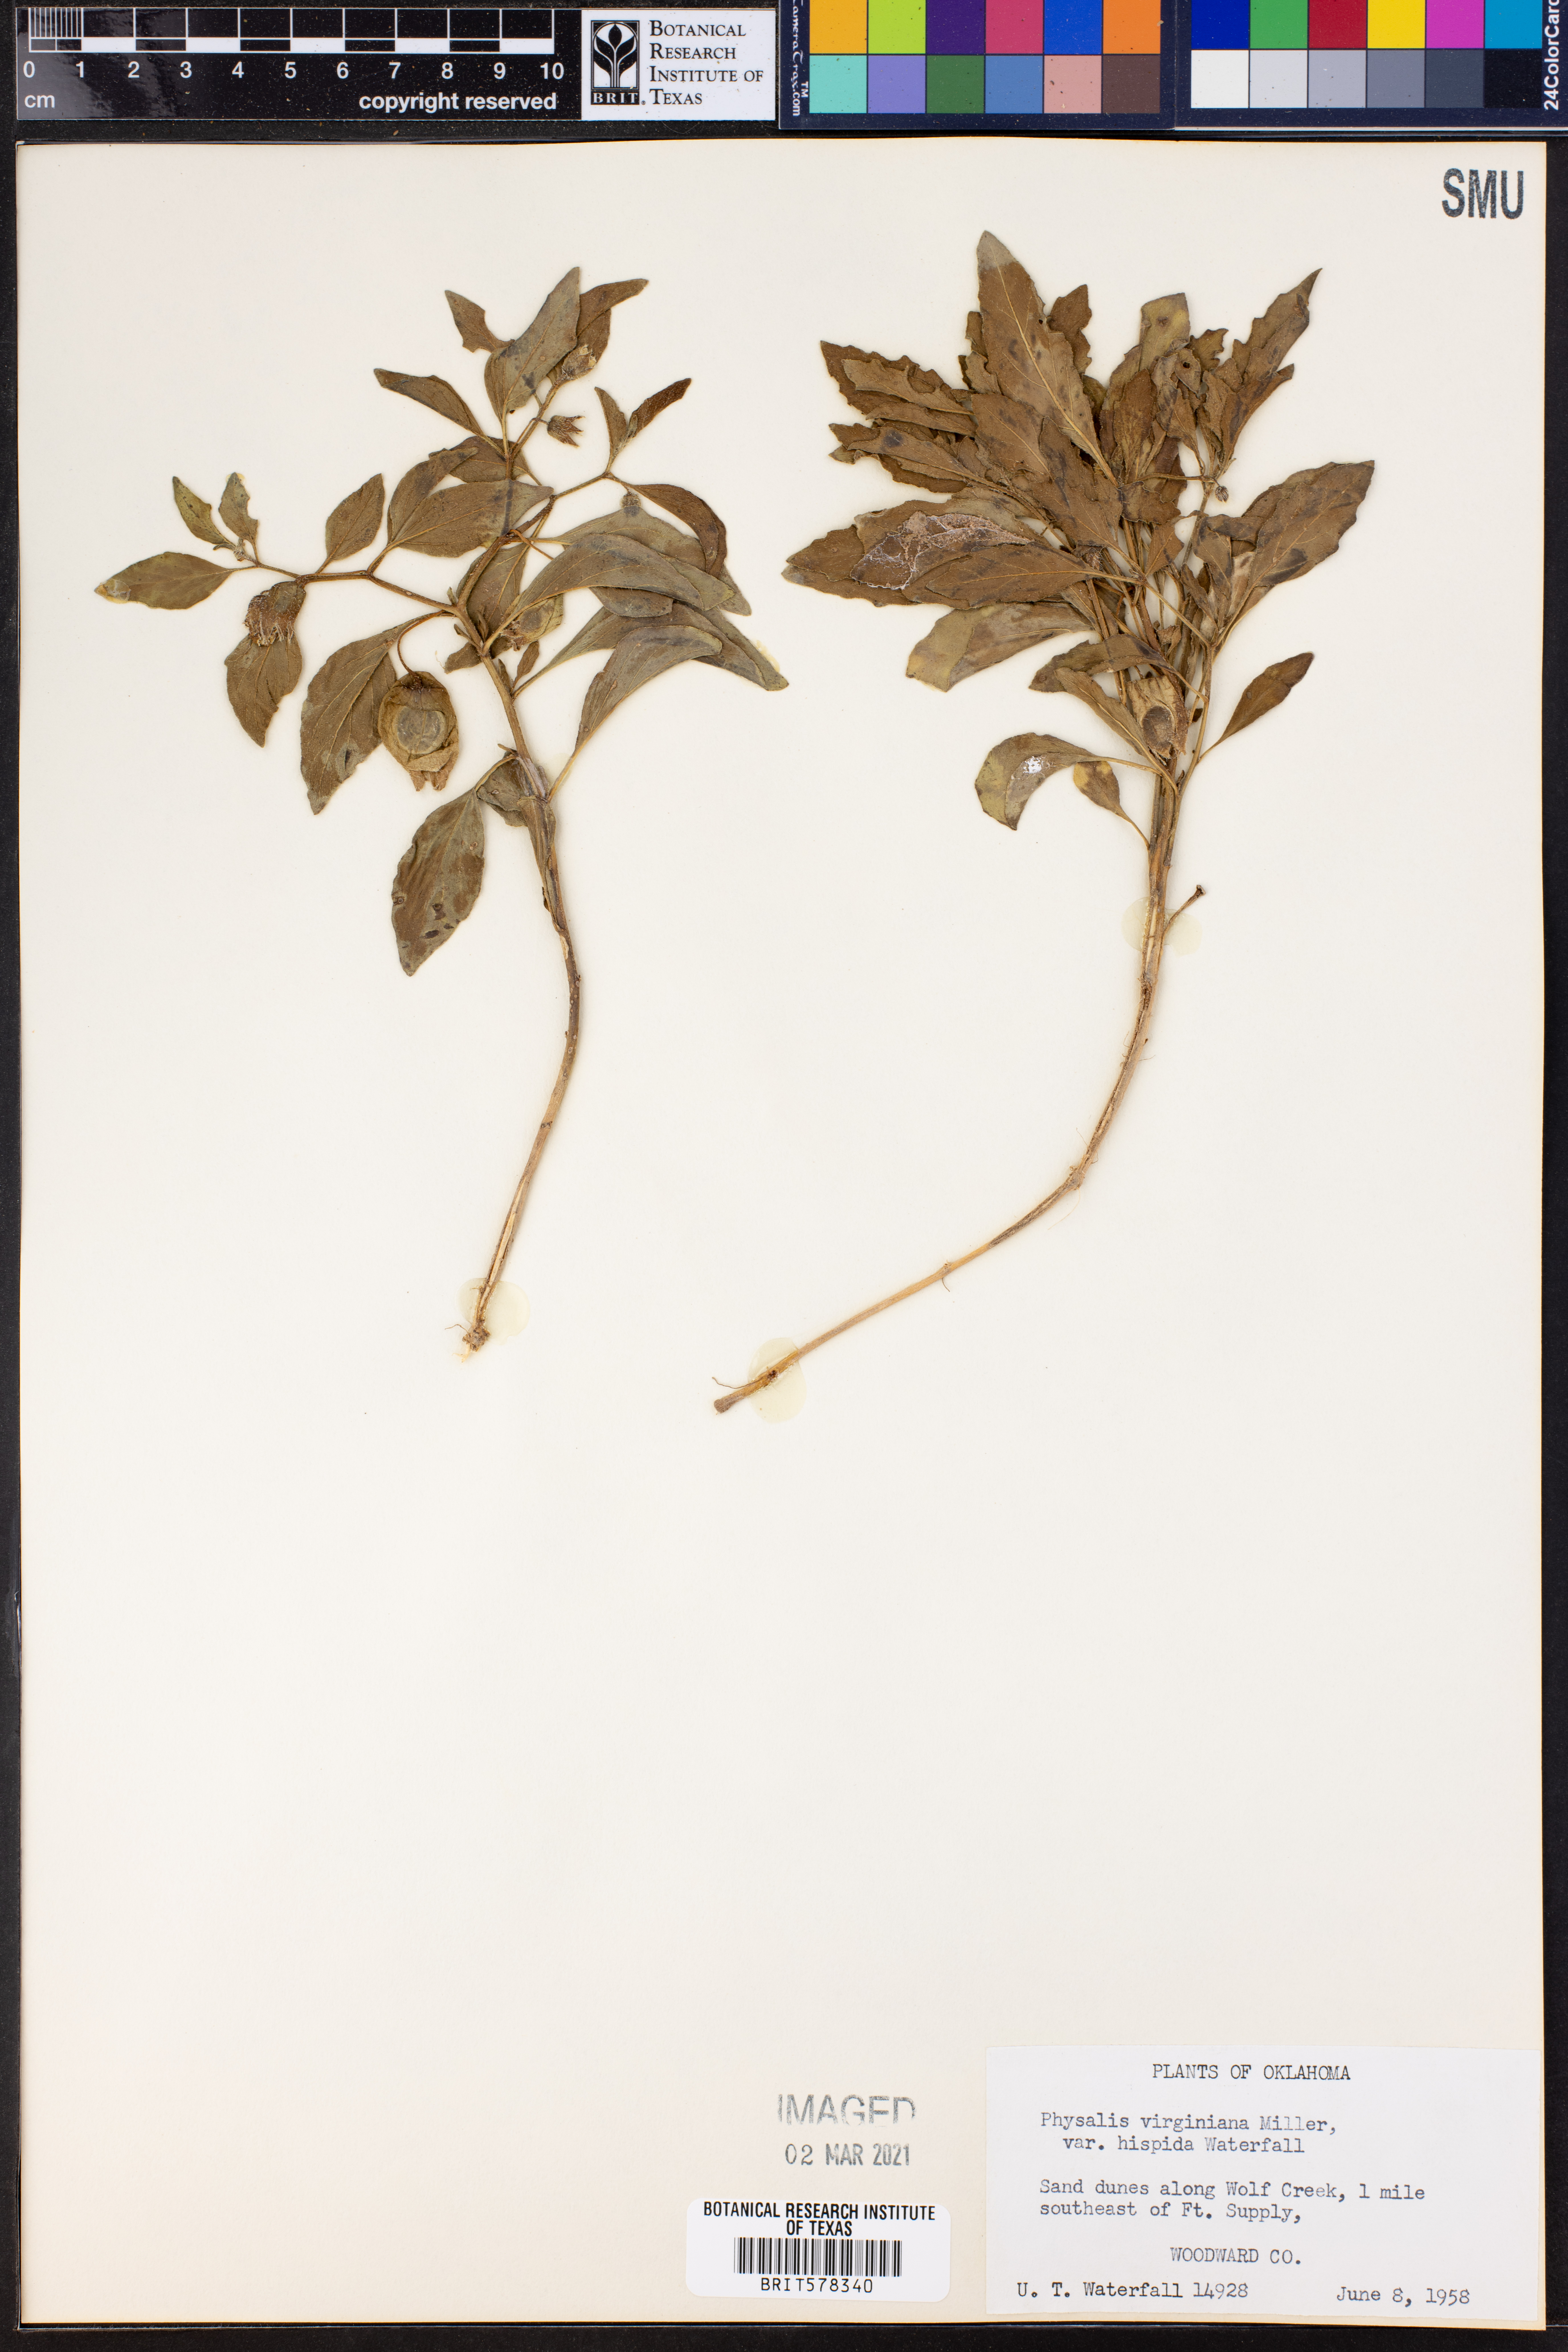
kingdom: Plantae
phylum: Tracheophyta
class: Magnoliopsida
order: Solanales
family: Solanaceae
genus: Physalis
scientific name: Physalis pumila
